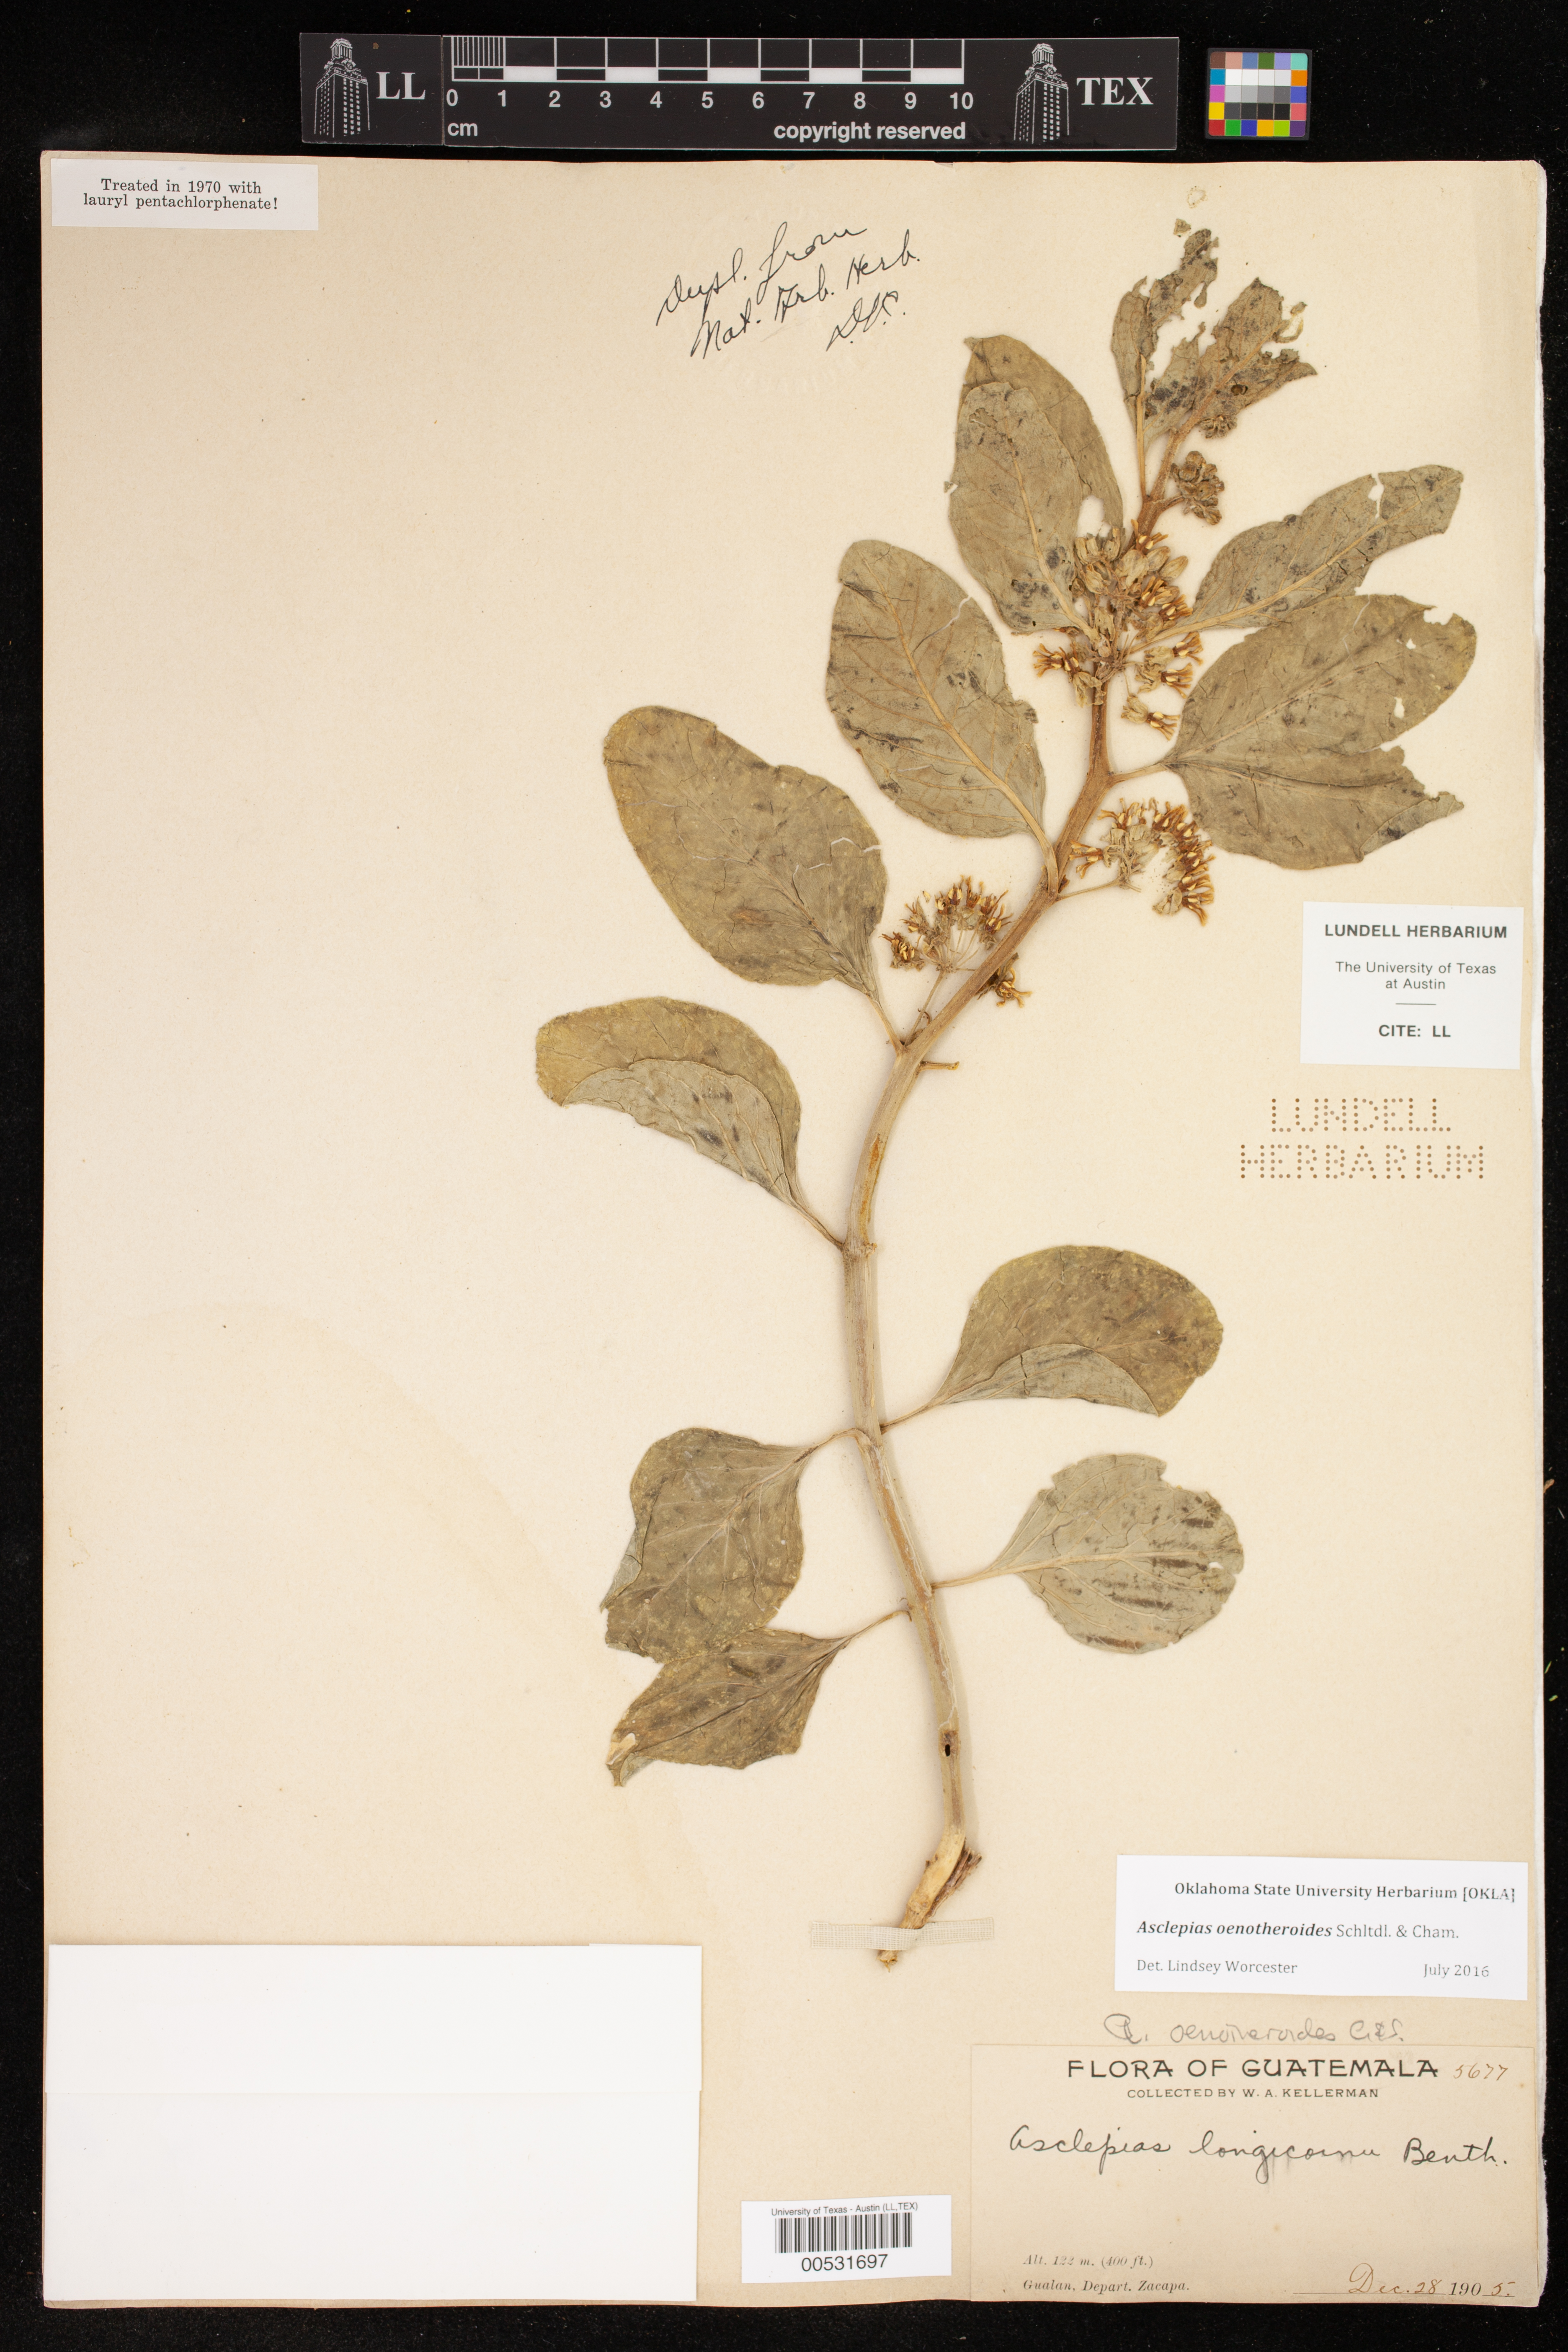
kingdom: Plantae
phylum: Tracheophyta
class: Magnoliopsida
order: Gentianales
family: Apocynaceae
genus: Asclepias
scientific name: Asclepias oenotheroides
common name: Zizotes milkweed
